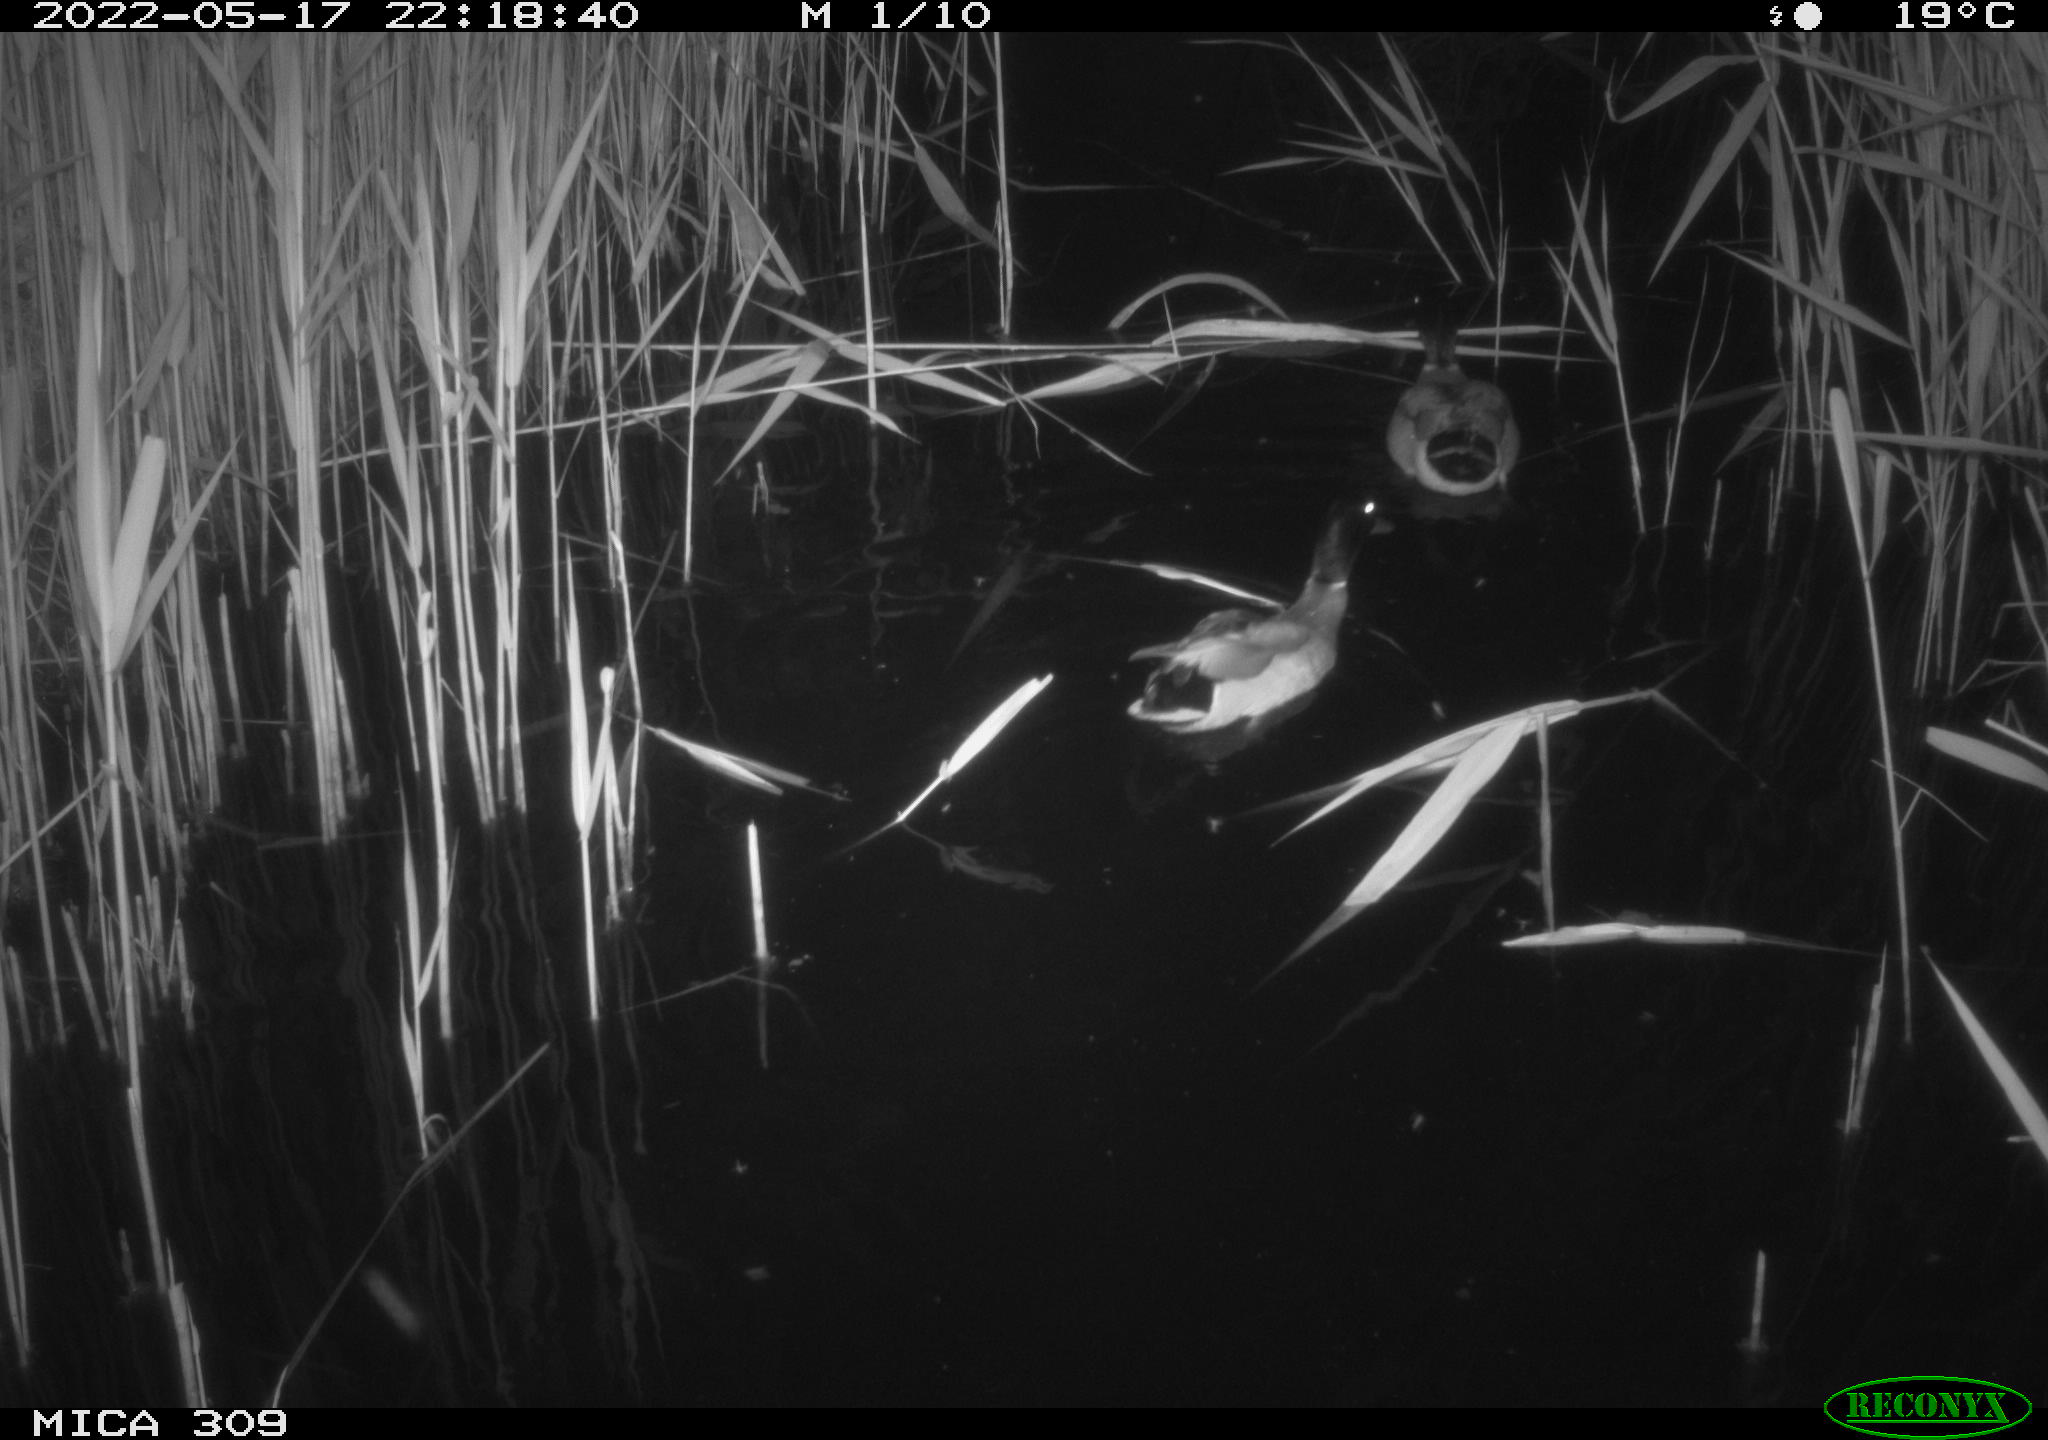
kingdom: Animalia
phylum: Chordata
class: Aves
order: Anseriformes
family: Anatidae
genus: Anas
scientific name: Anas platyrhynchos
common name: Mallard
